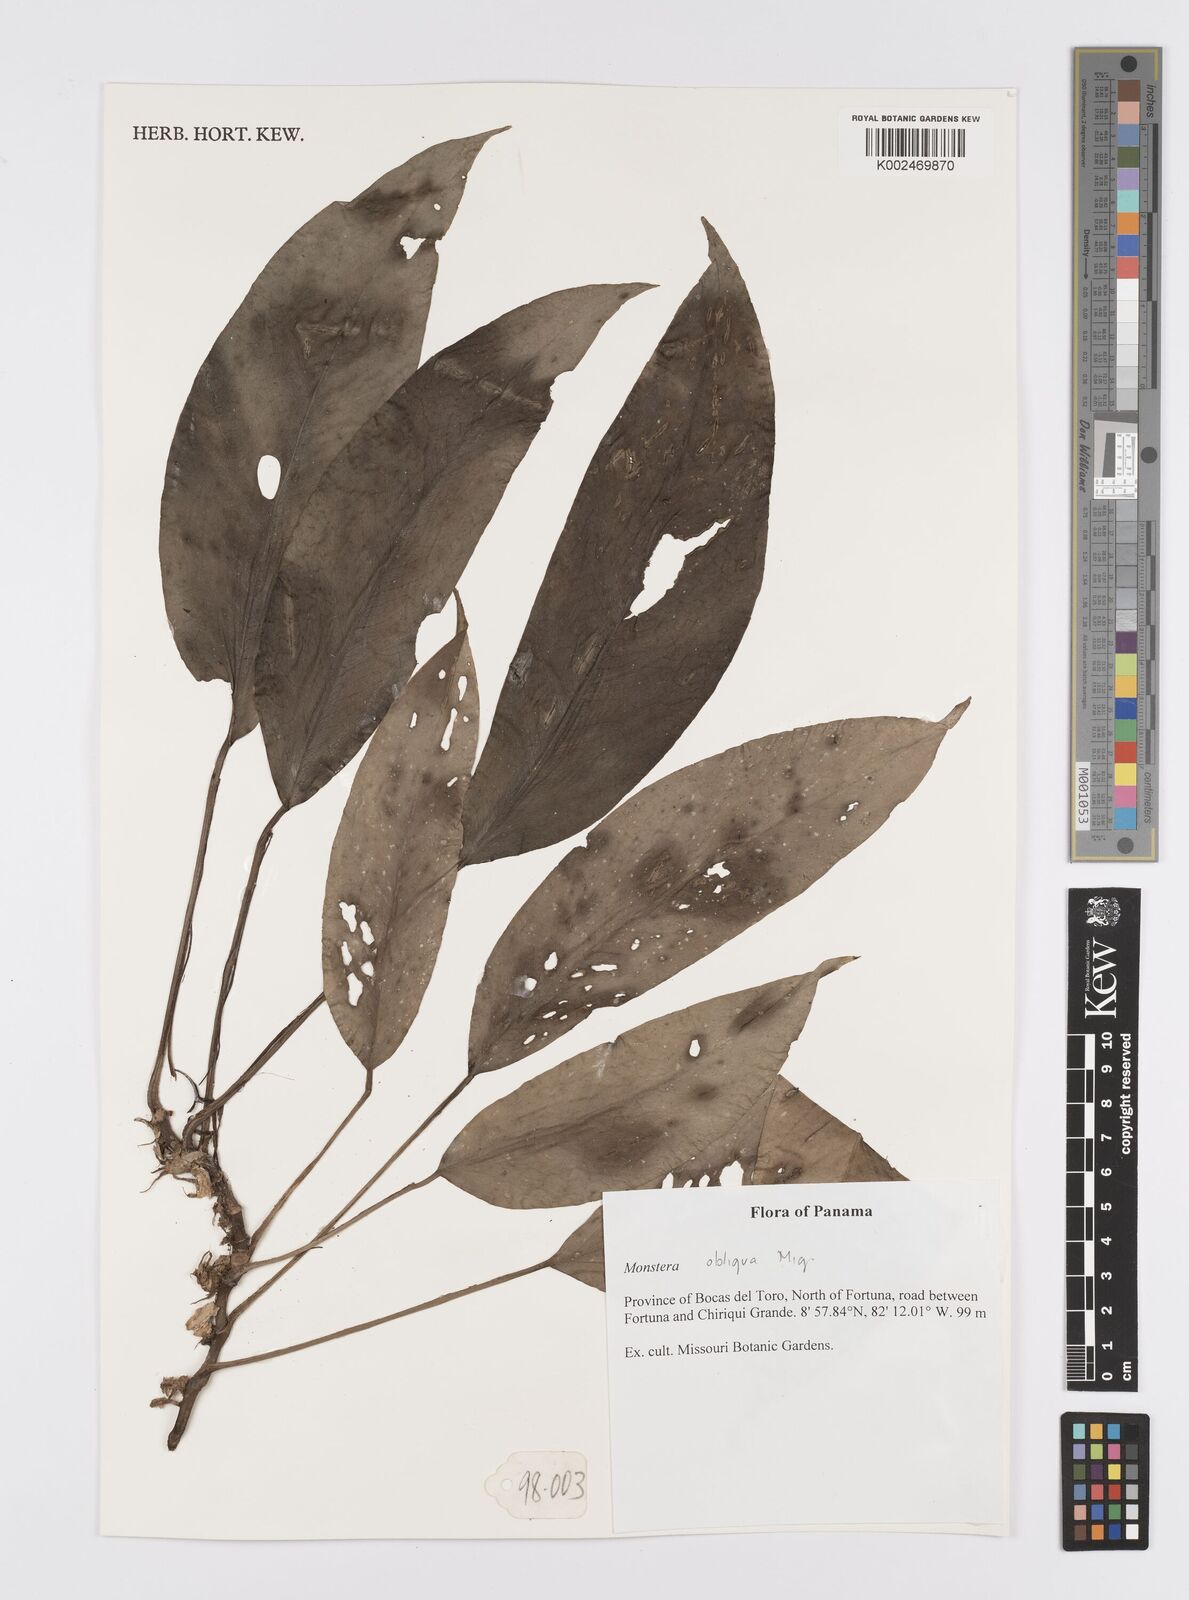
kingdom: Plantae
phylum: Tracheophyta
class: Liliopsida
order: Alismatales
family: Araceae
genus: Monstera
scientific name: Monstera obliqua
